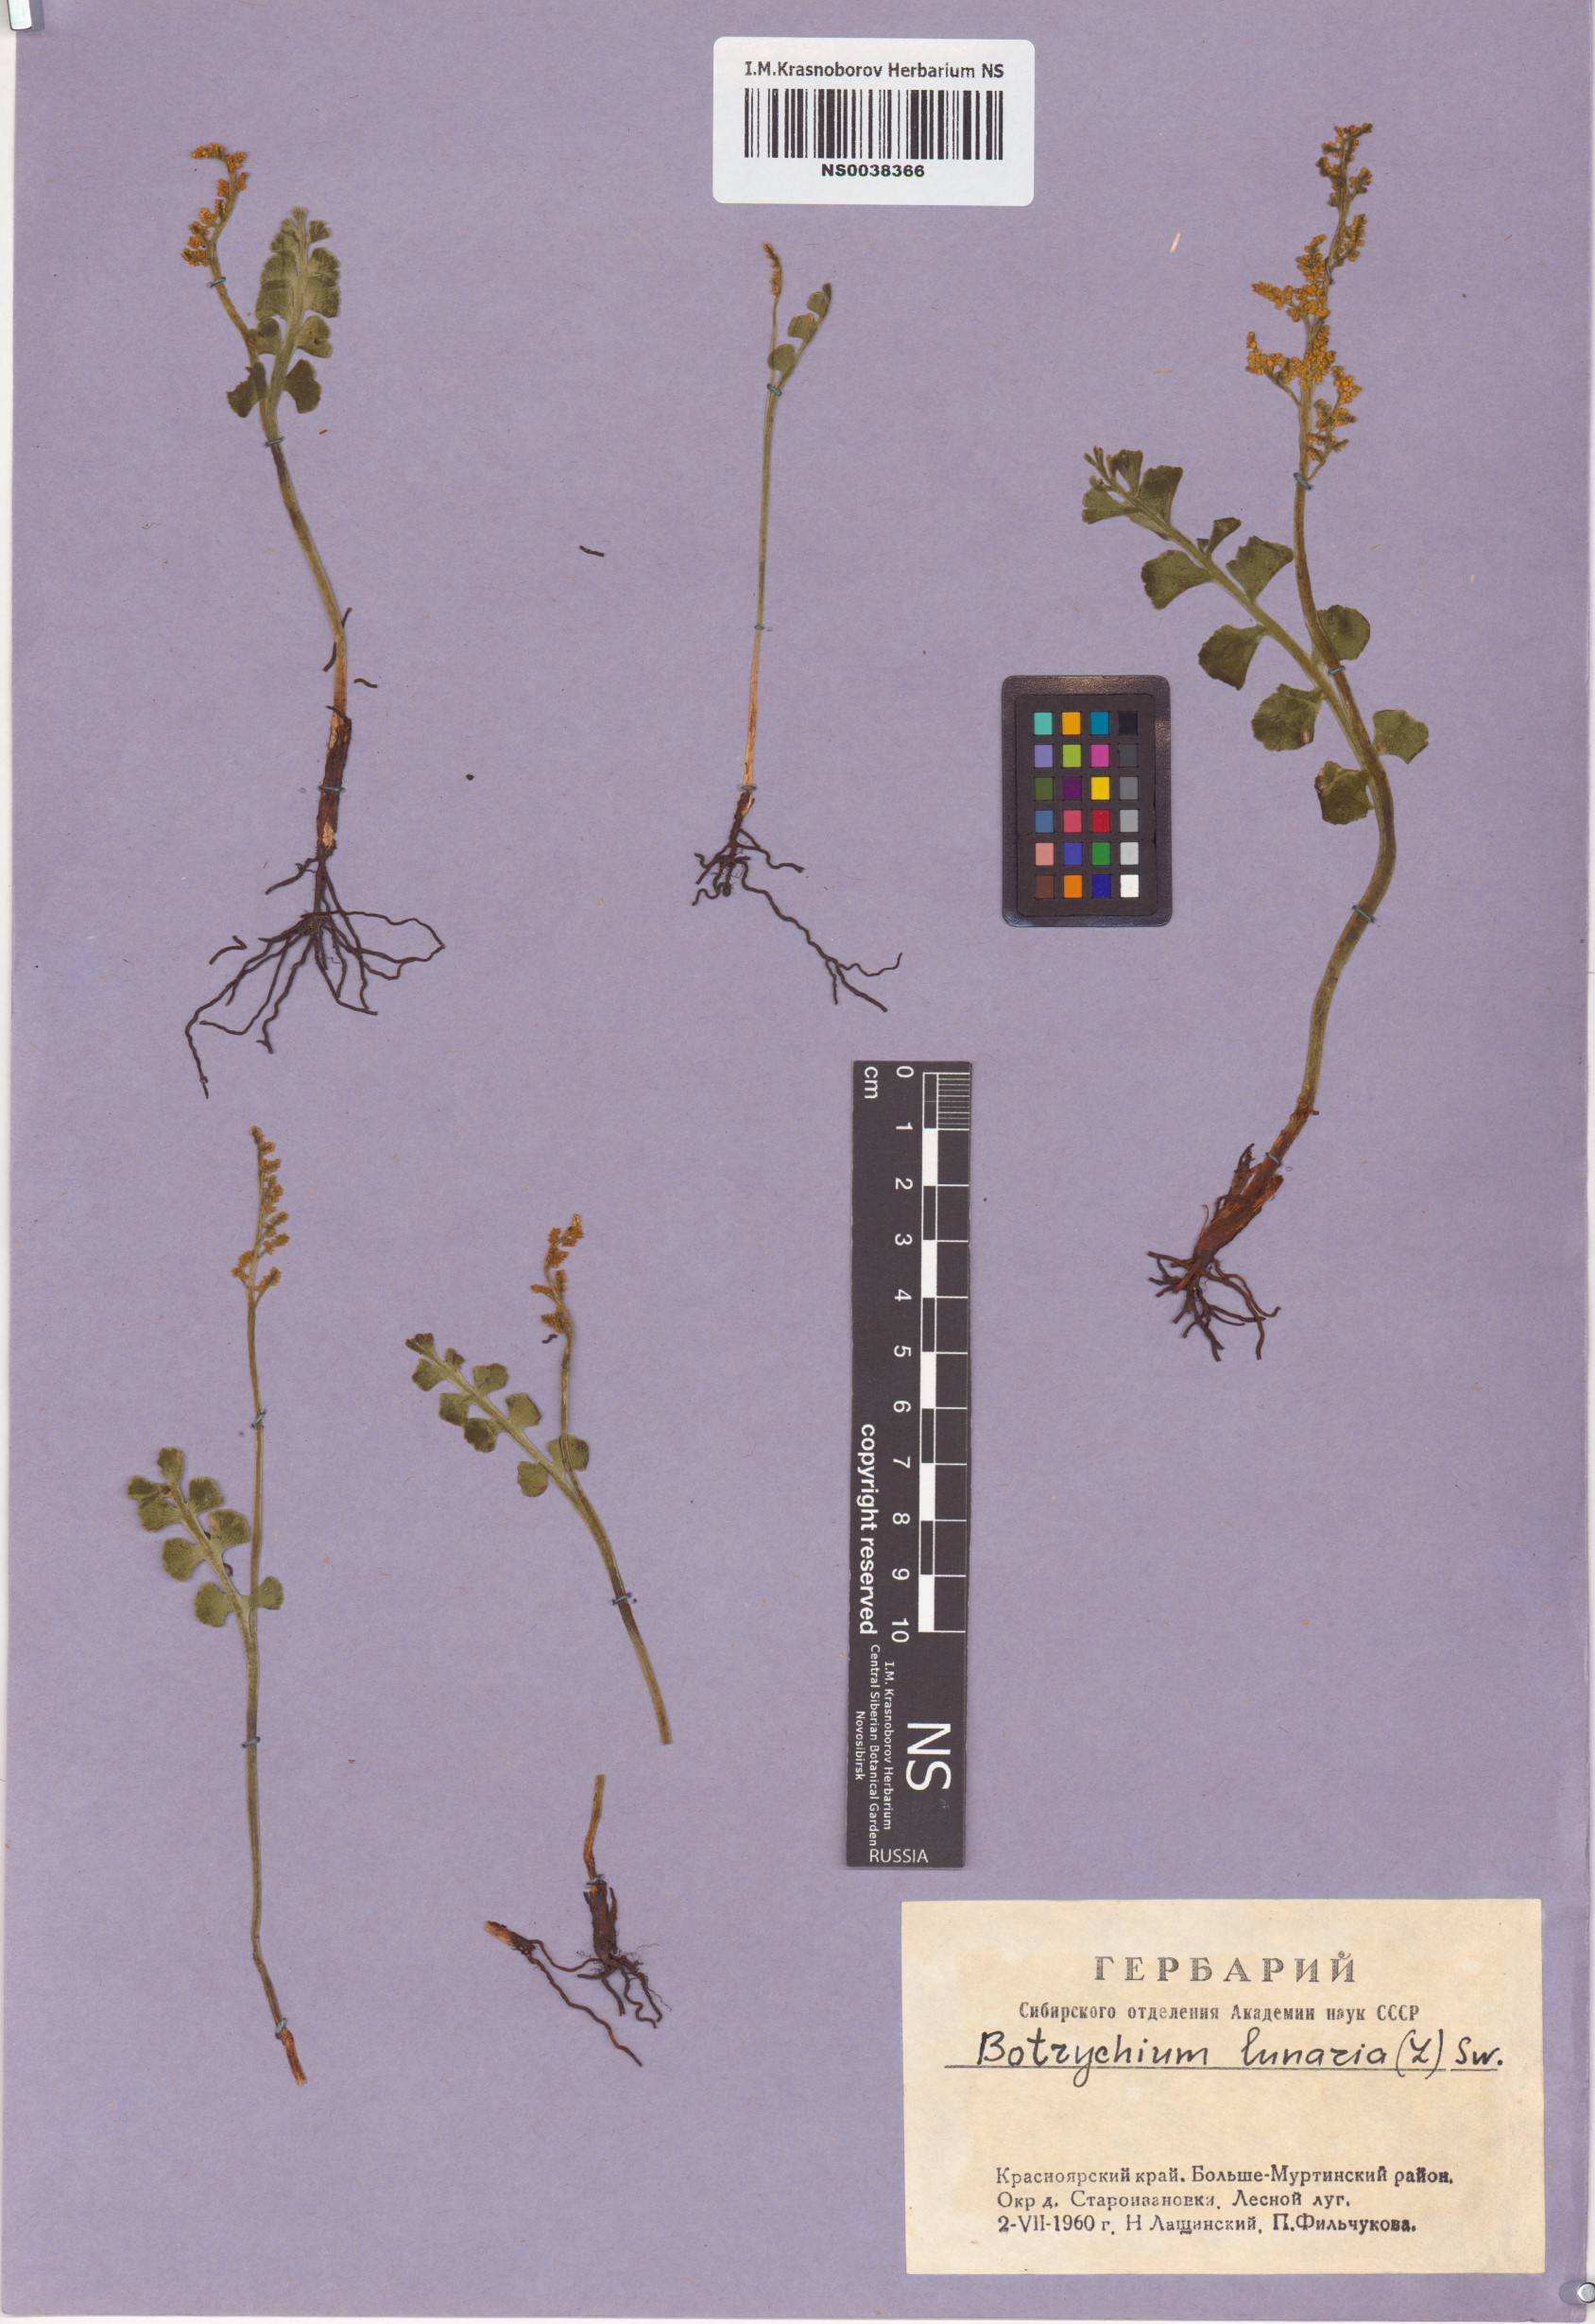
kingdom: Plantae
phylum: Tracheophyta
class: Polypodiopsida
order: Ophioglossales
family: Ophioglossaceae
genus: Botrychium
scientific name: Botrychium lunaria
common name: Moonwort
